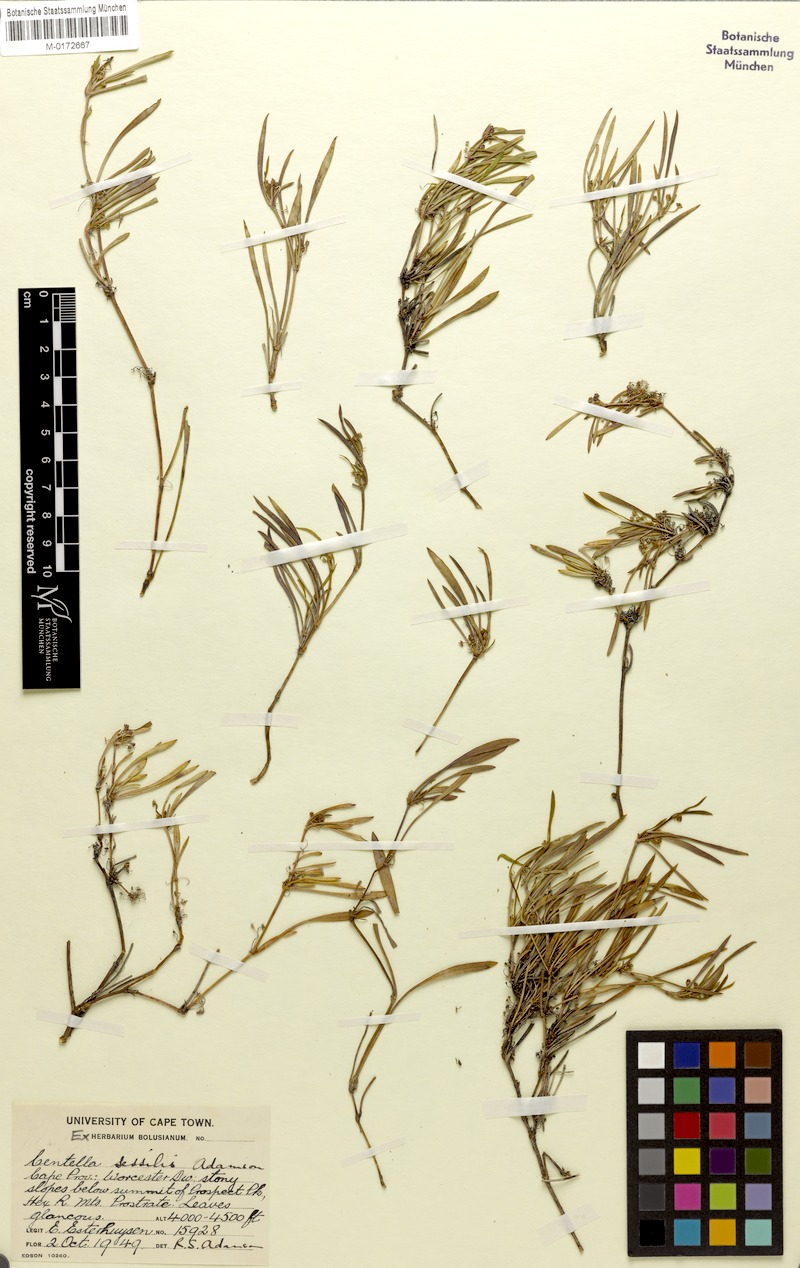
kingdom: Plantae
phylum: Tracheophyta
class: Magnoliopsida
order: Apiales
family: Apiaceae
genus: Centella
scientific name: Centella sessilis
